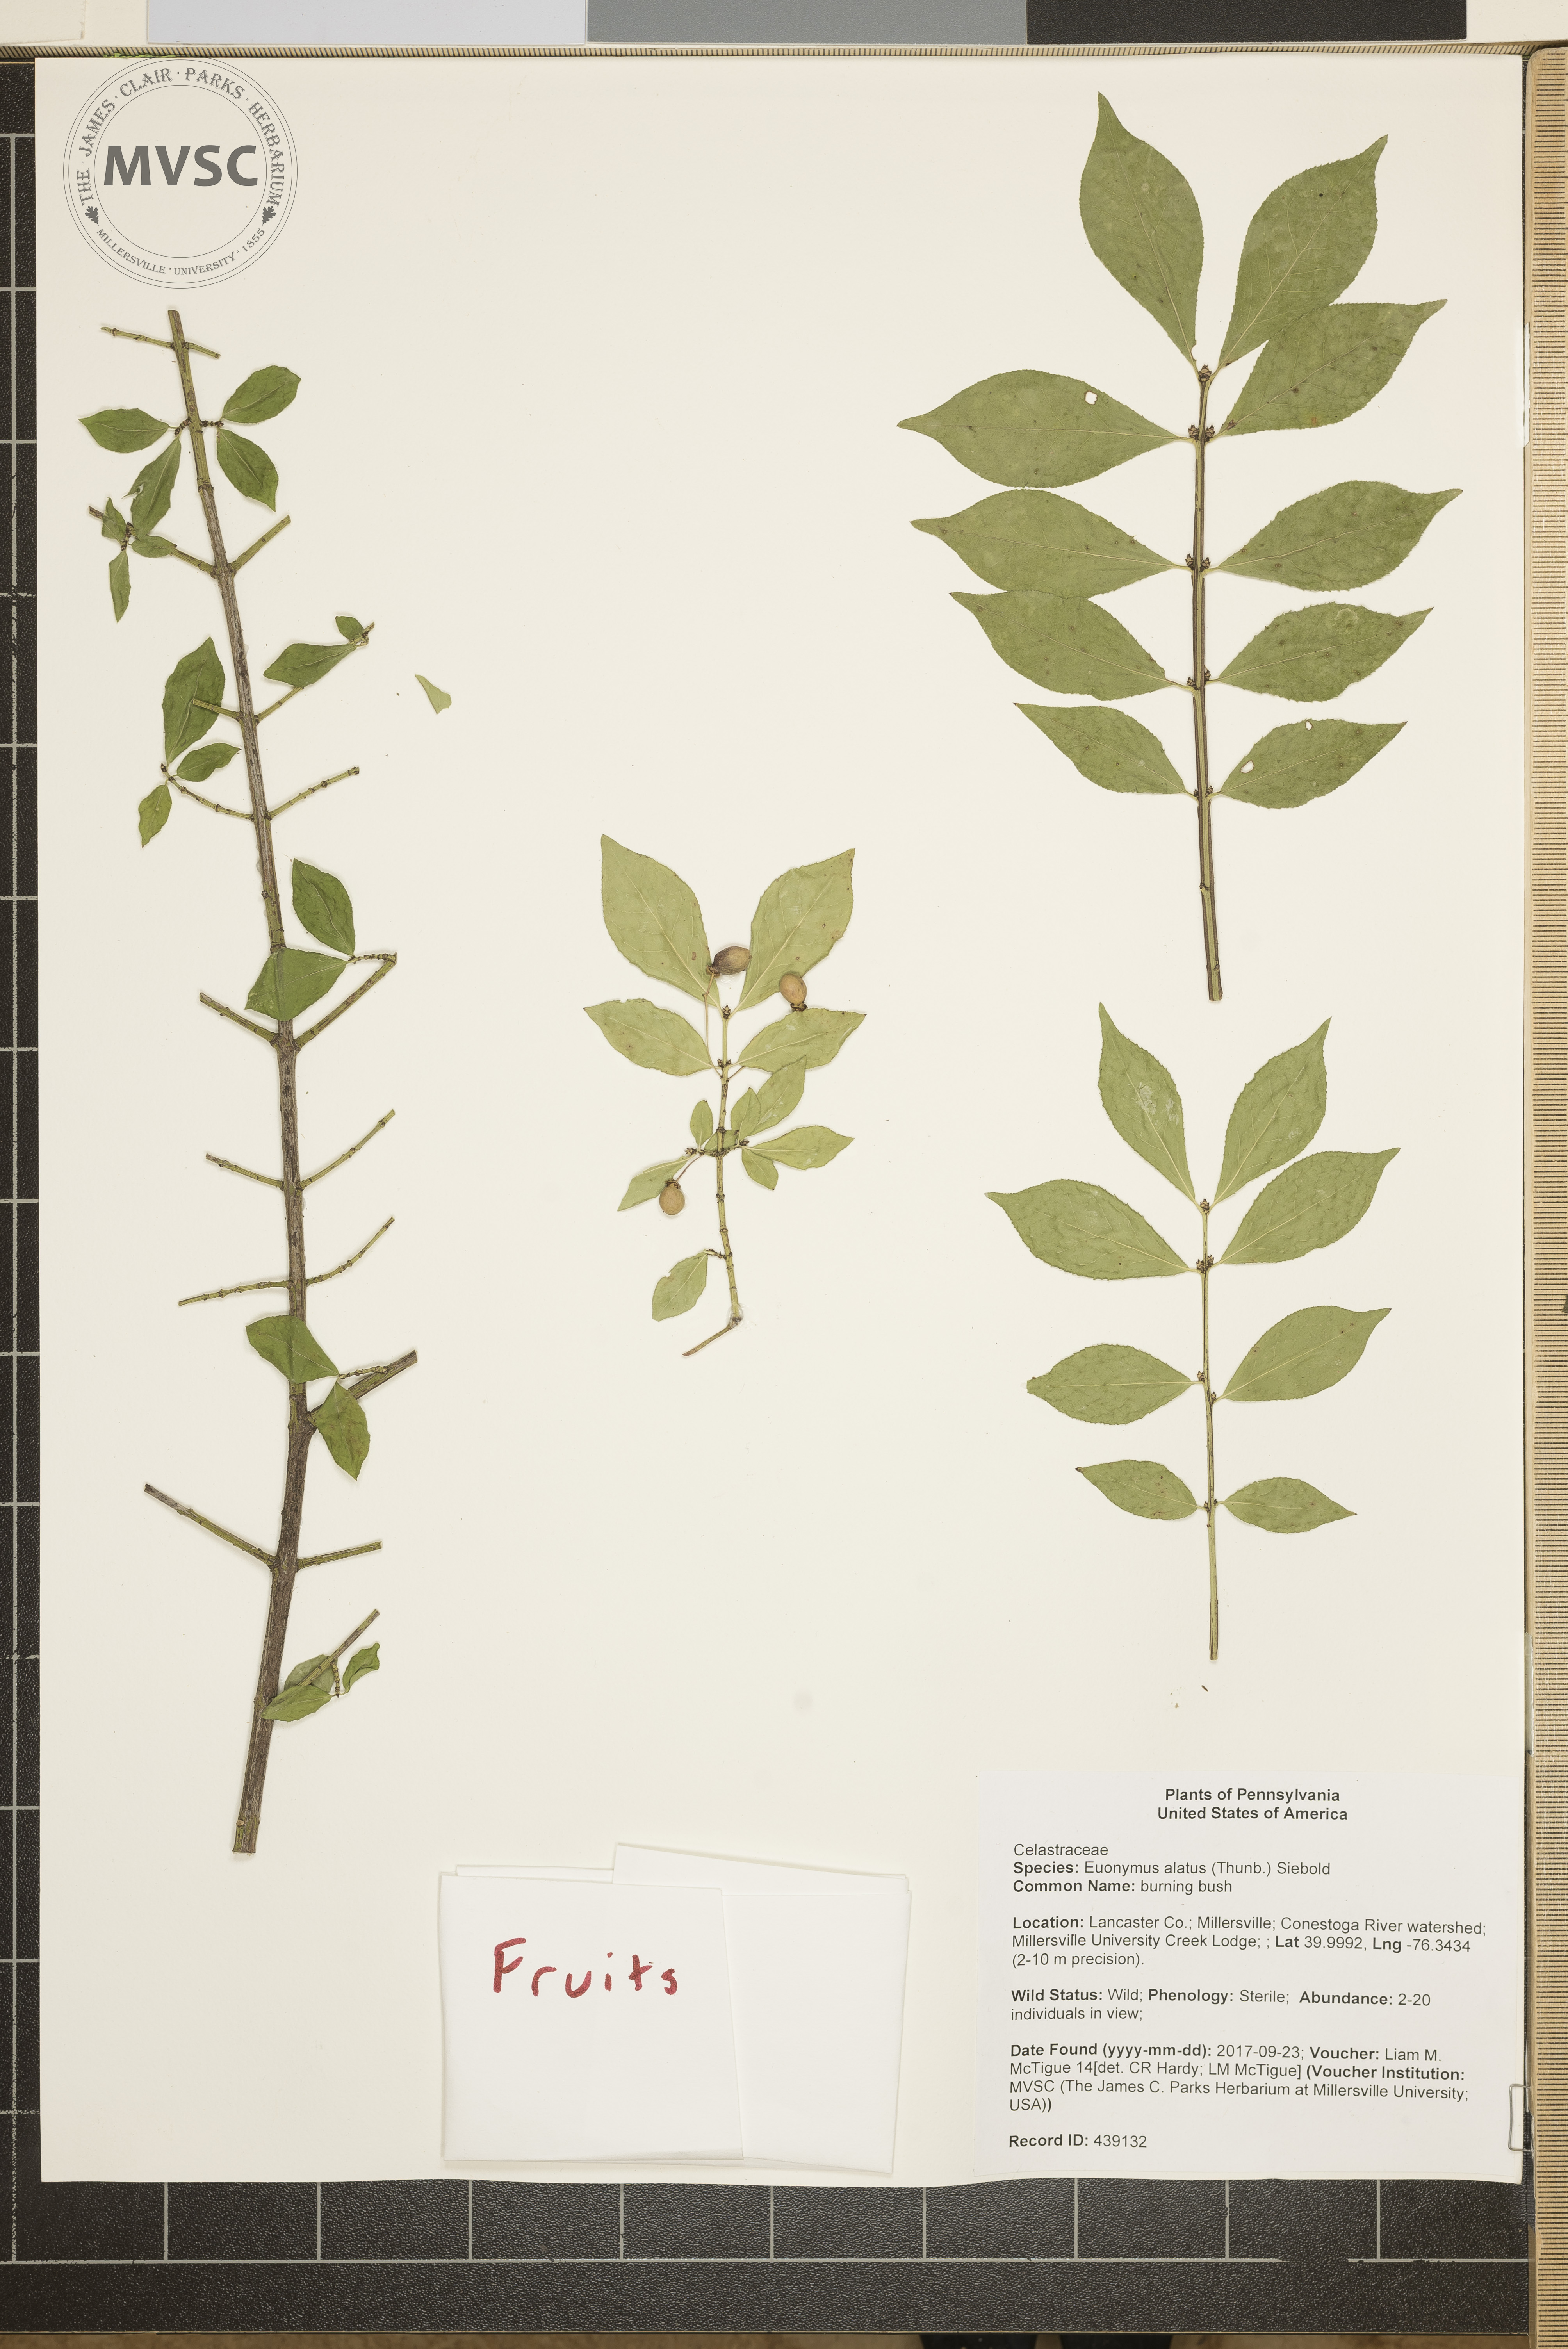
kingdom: Plantae
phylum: Tracheophyta
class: Magnoliopsida
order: Celastrales
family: Celastraceae
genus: Euonymus
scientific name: Euonymus alatus
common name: burning bush
